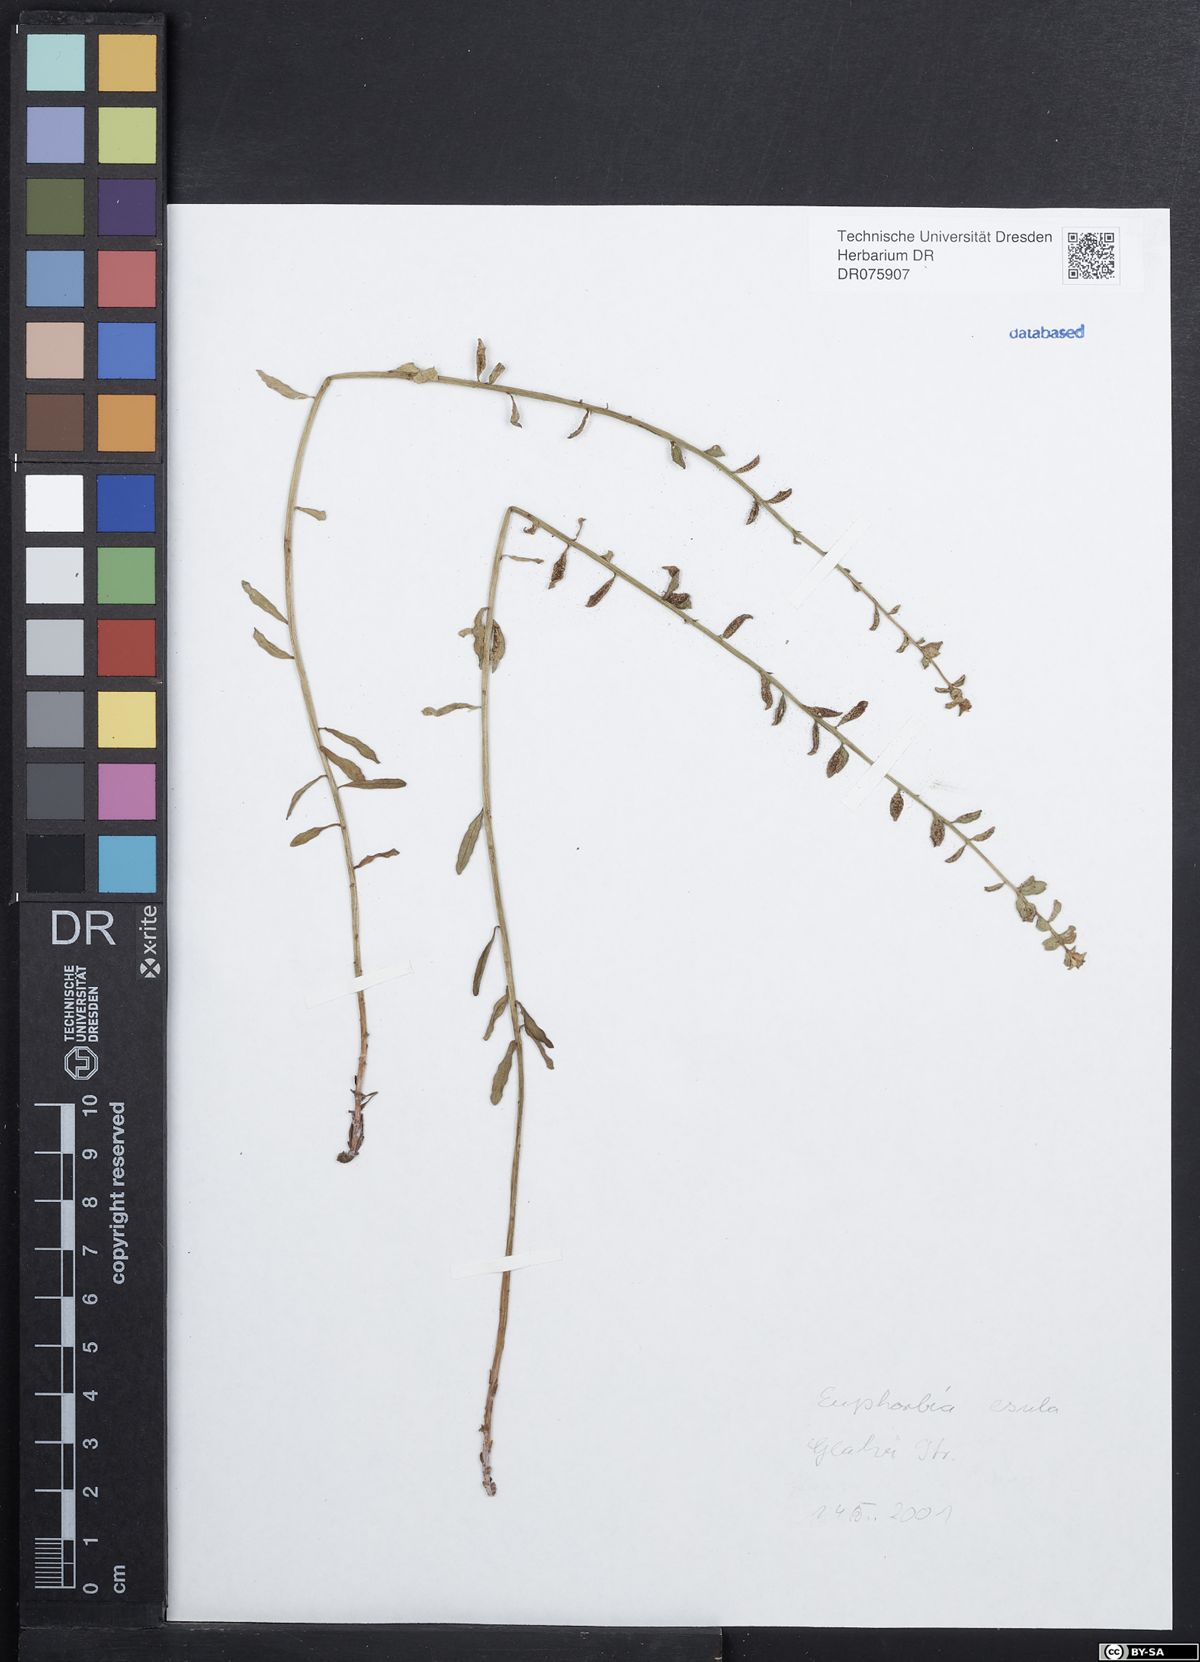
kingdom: Plantae
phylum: Tracheophyta
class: Magnoliopsida
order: Malpighiales
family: Euphorbiaceae
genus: Euphorbia
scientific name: Euphorbia esula
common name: Leafy spurge
